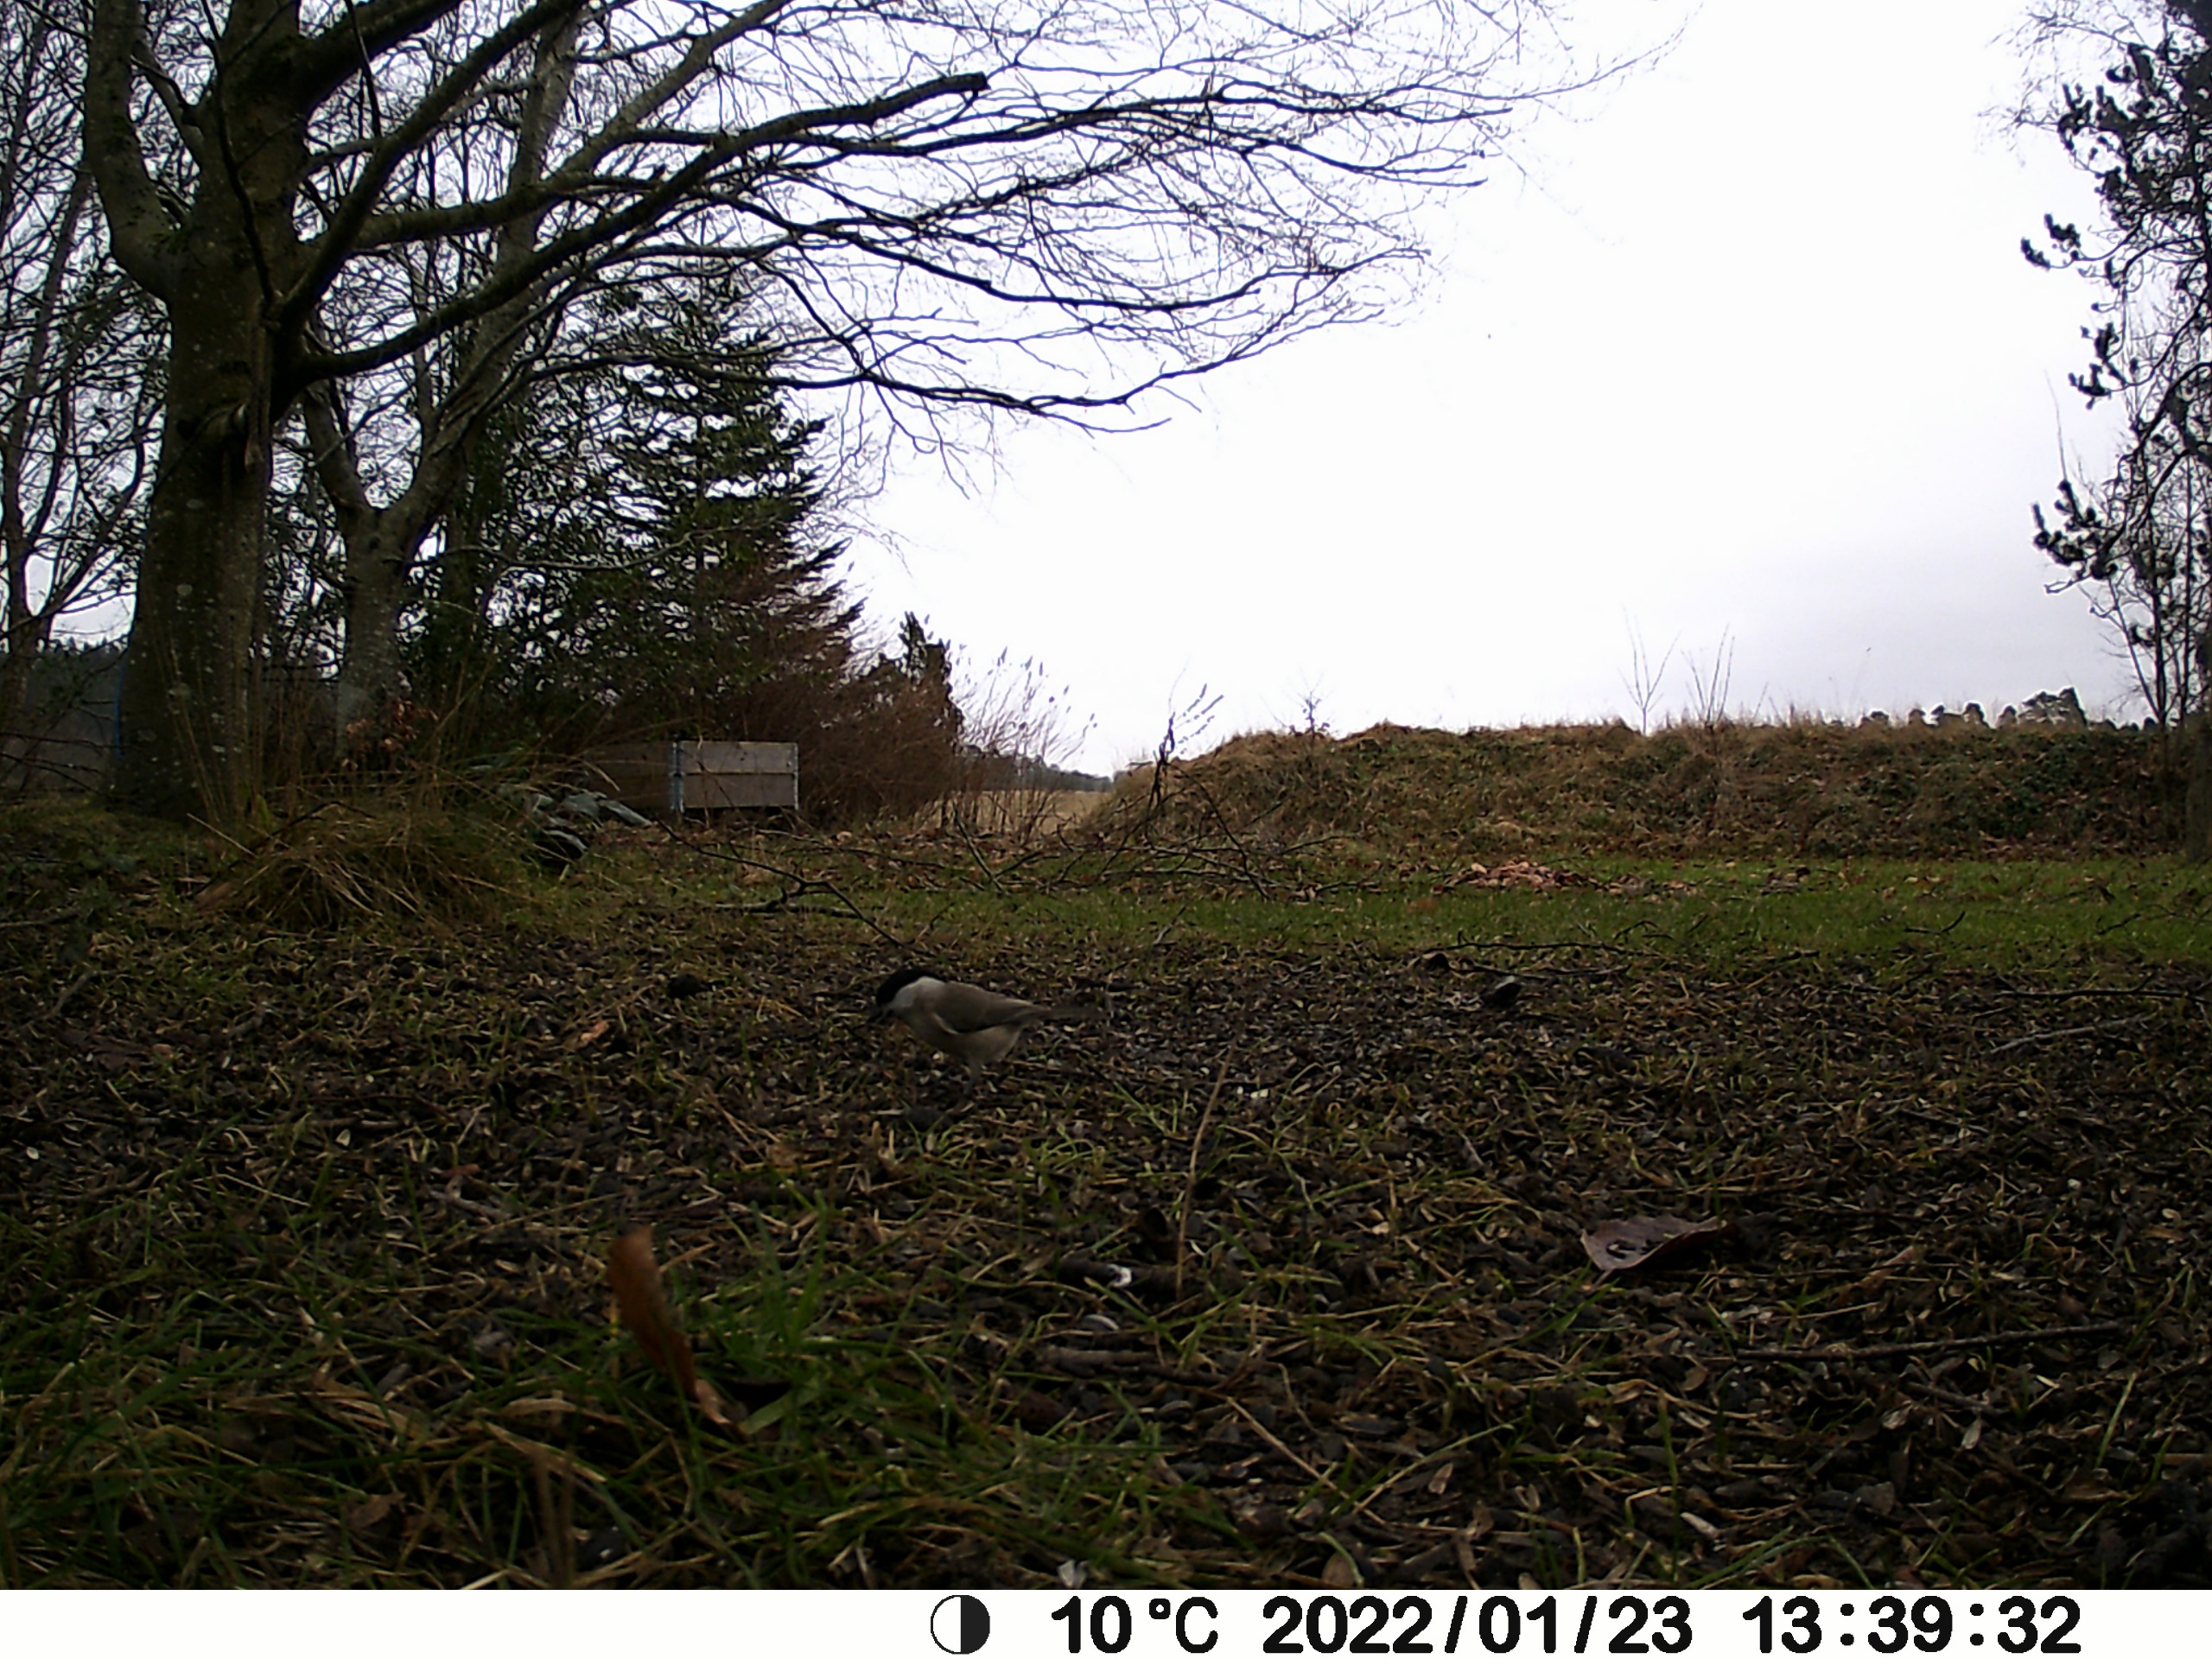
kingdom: Animalia
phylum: Chordata
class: Aves
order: Passeriformes
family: Paridae
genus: Poecile
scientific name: Poecile palustris
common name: Sumpmejse
